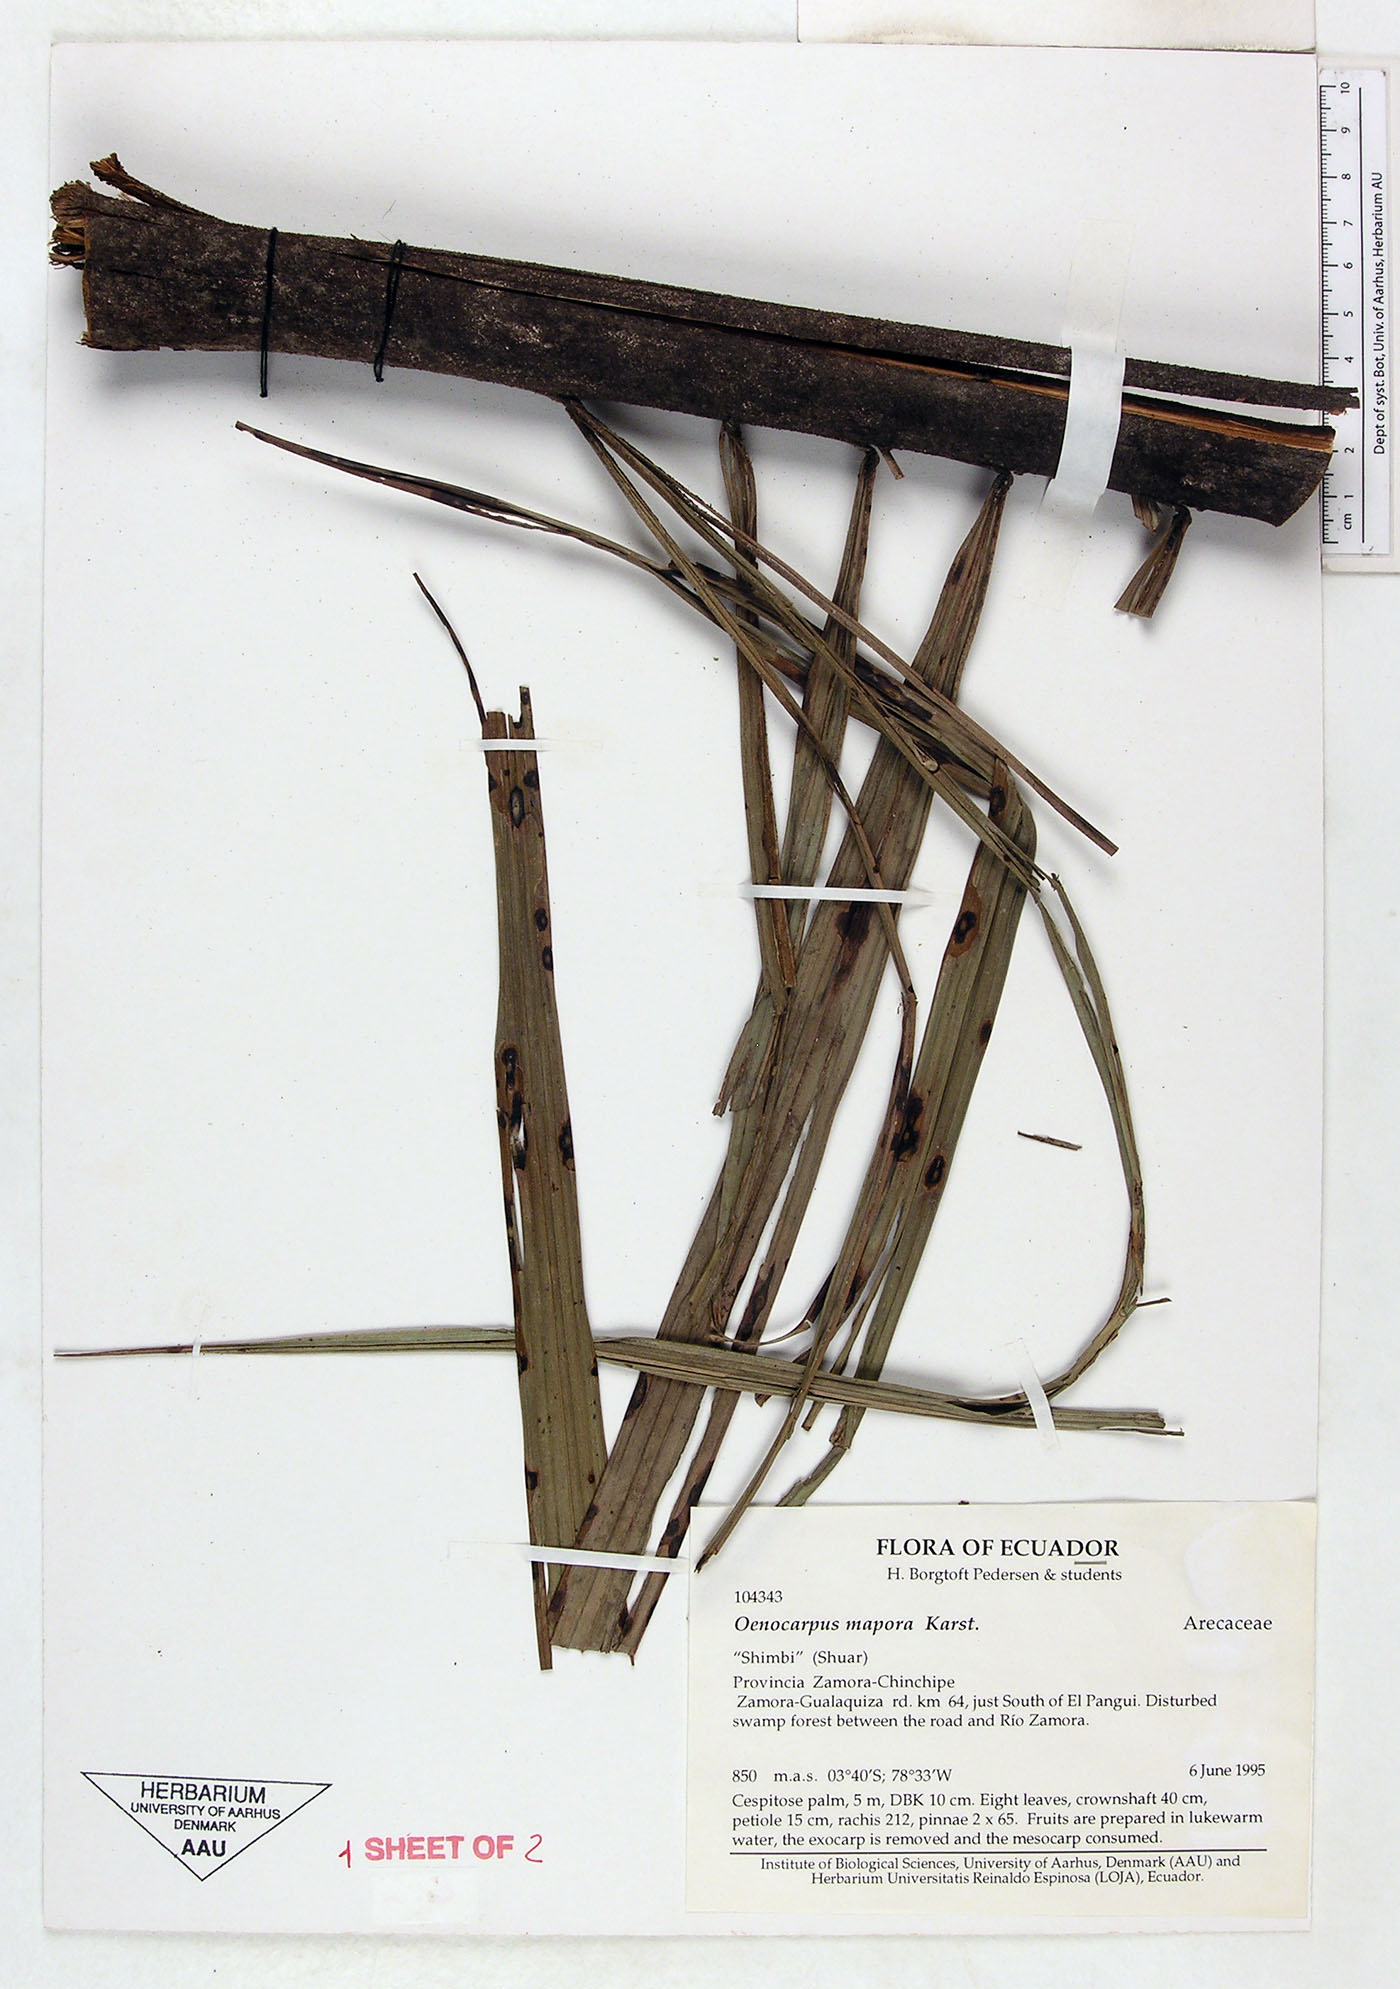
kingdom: Plantae
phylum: Tracheophyta
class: Liliopsida
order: Arecales
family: Arecaceae
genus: Oenocarpus
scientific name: Oenocarpus mapora
